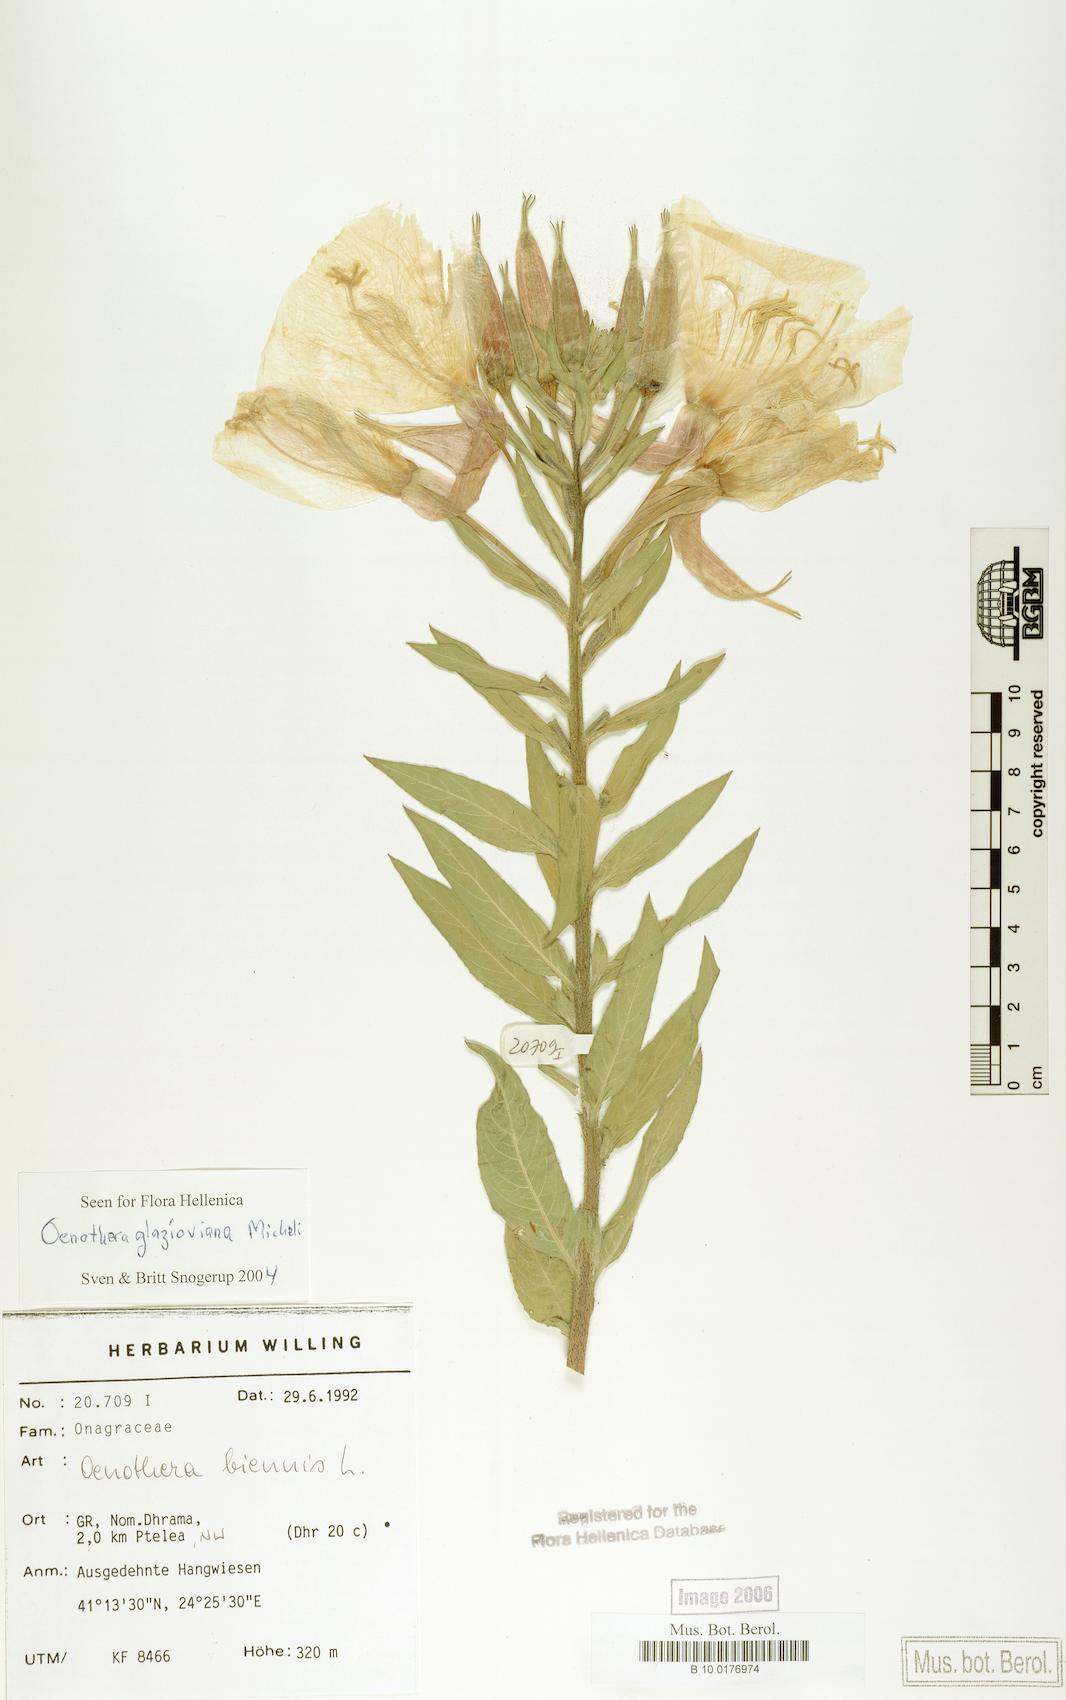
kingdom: Plantae
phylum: Tracheophyta
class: Magnoliopsida
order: Myrtales
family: Onagraceae
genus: Oenothera
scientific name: Oenothera glazioviana
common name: Large-flowered evening-primrose
